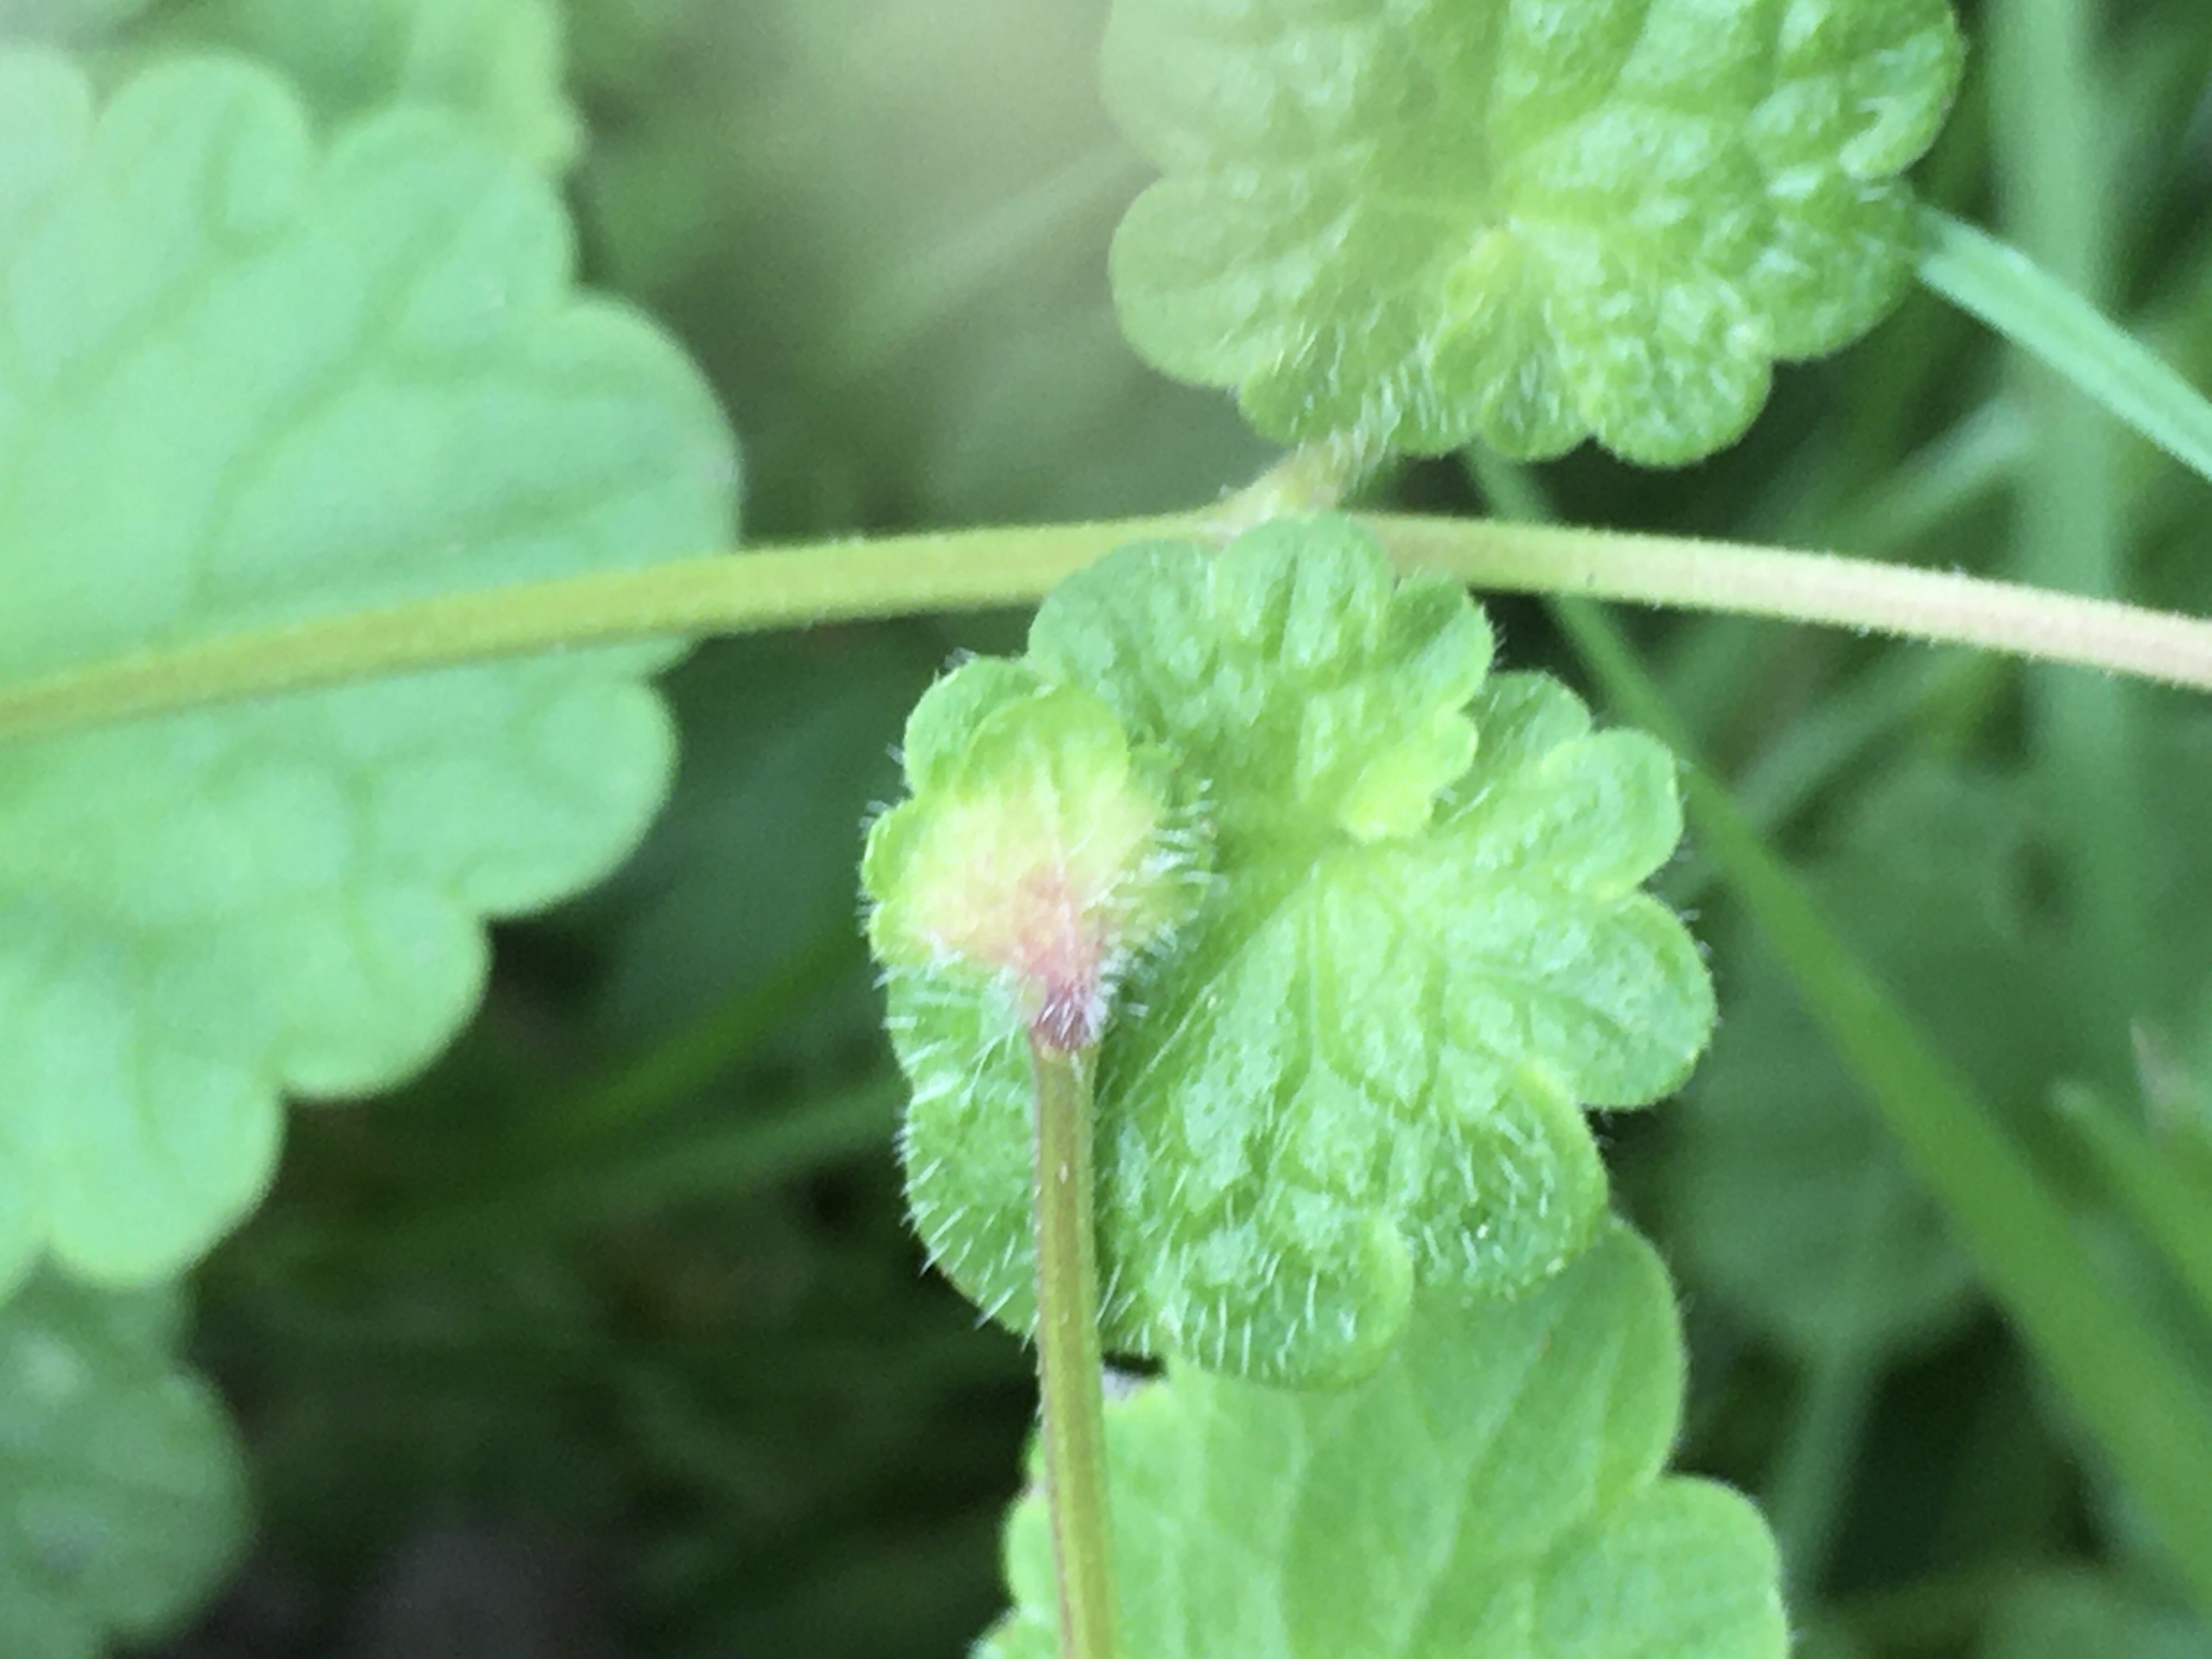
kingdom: Animalia
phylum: Arthropoda
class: Insecta
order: Diptera
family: Cecidomyiidae
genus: Dasineura
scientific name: Dasineura glechomae
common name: Korsknapskudgalmyg
